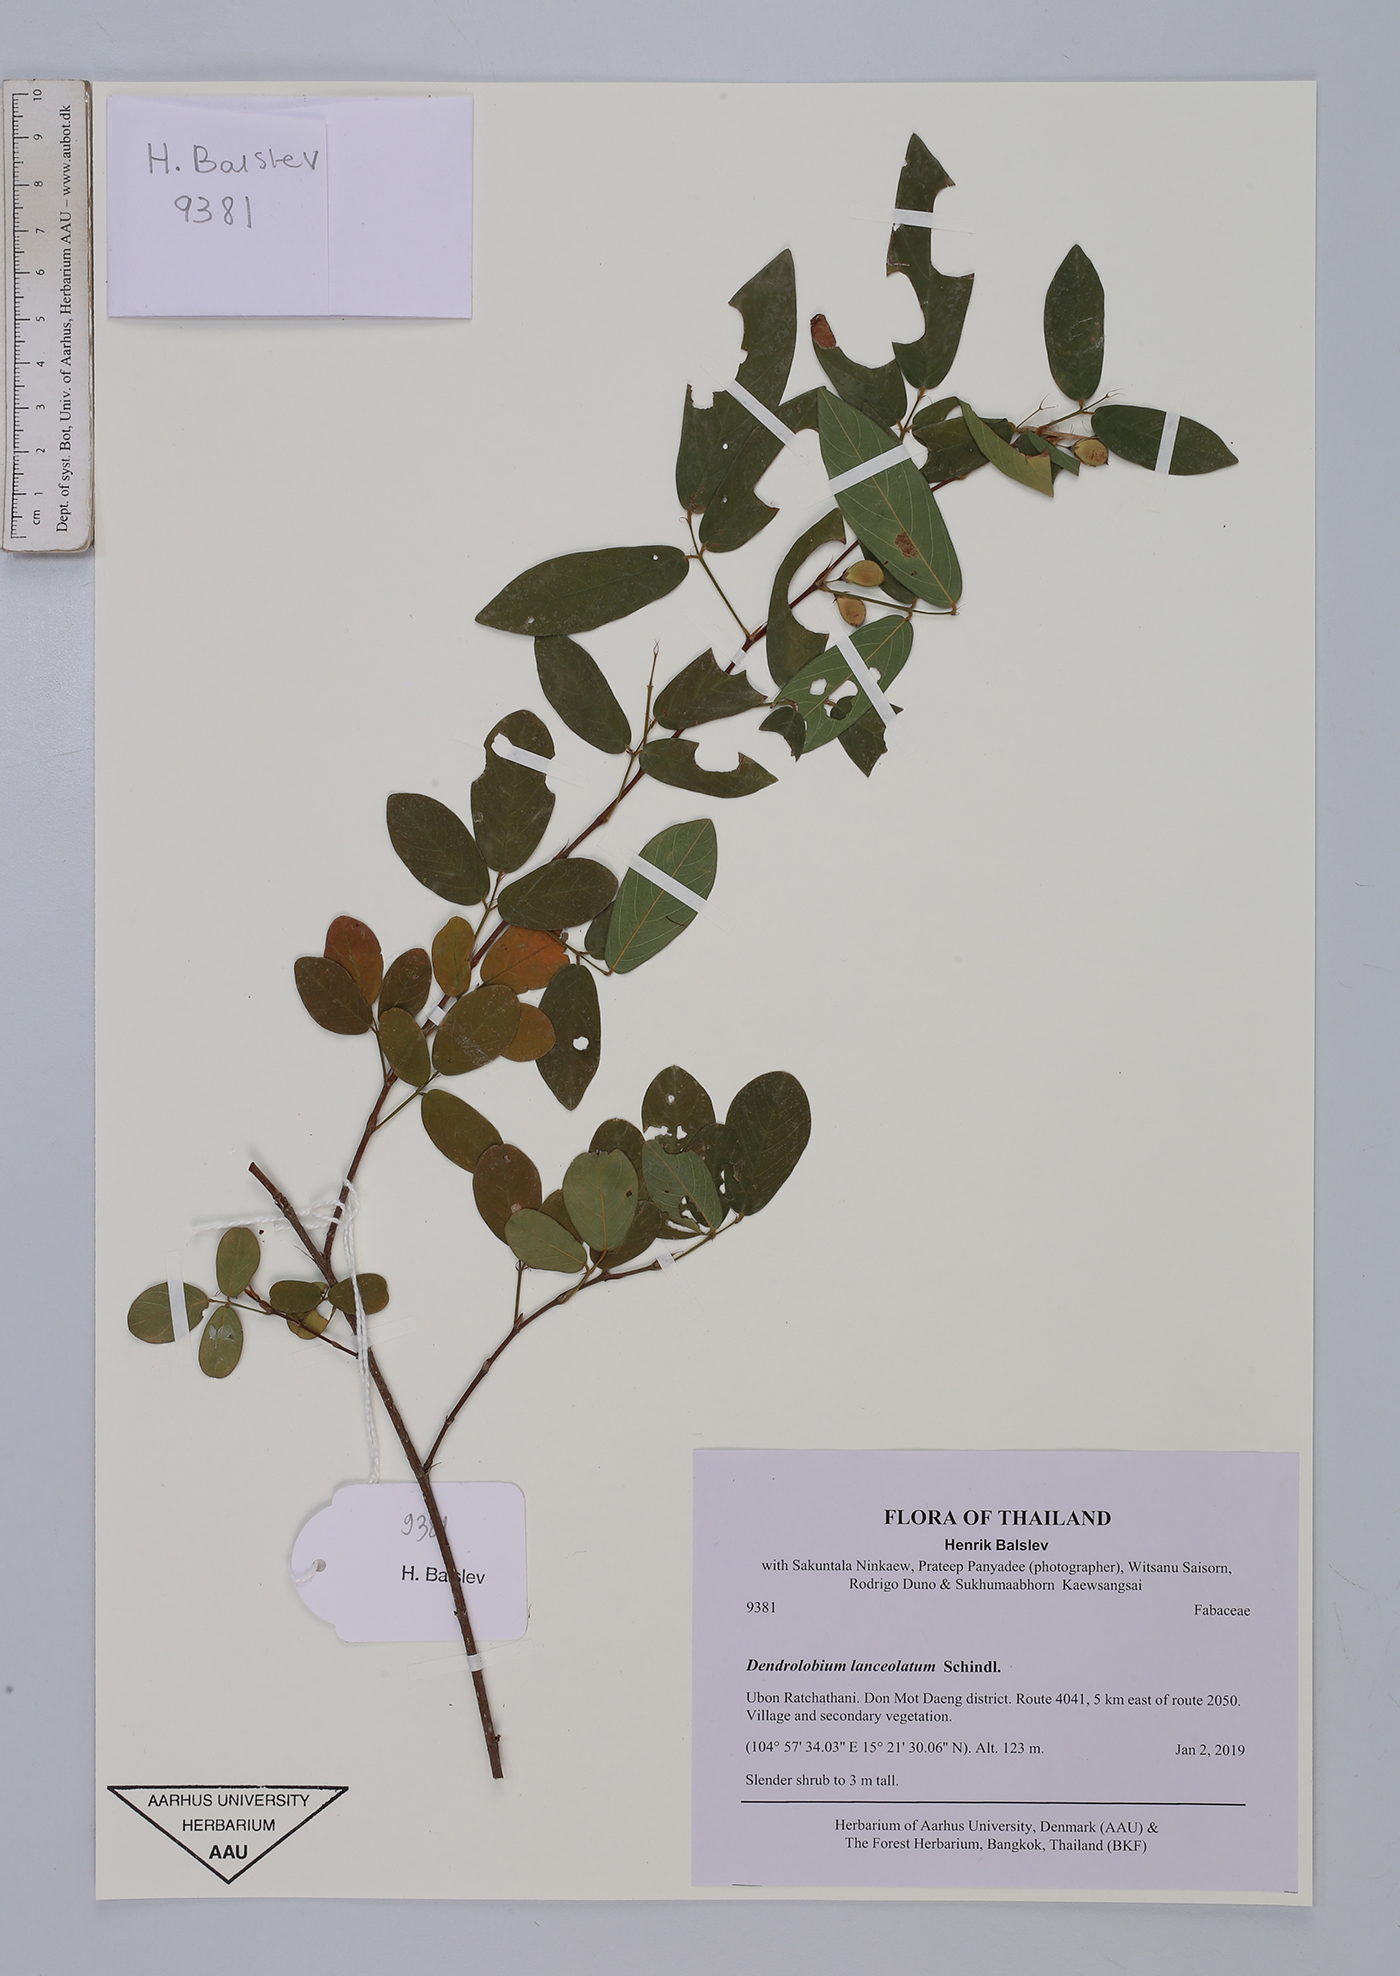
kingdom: Plantae
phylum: Tracheophyta
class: Magnoliopsida
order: Fabales
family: Fabaceae
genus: Dendrolobium
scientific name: Dendrolobium lanceolatum
